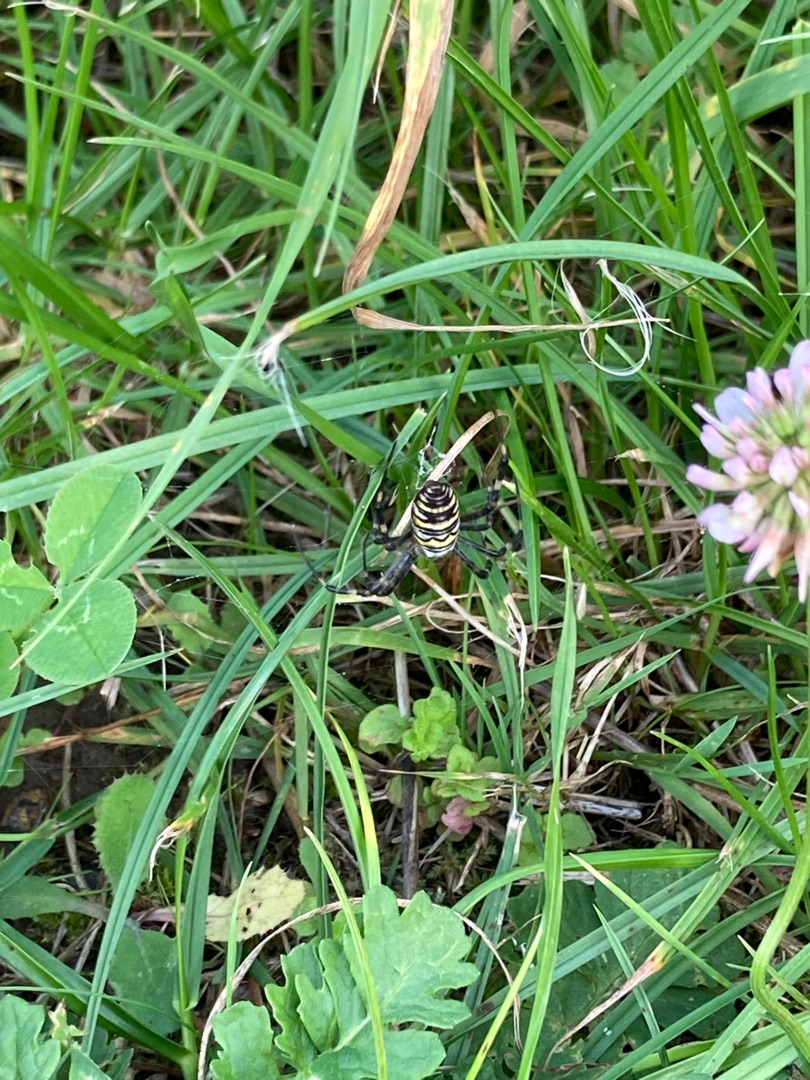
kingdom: Animalia
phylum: Arthropoda
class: Arachnida
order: Araneae
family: Araneidae
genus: Argiope
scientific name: Argiope bruennichi
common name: Hvepseedderkop
